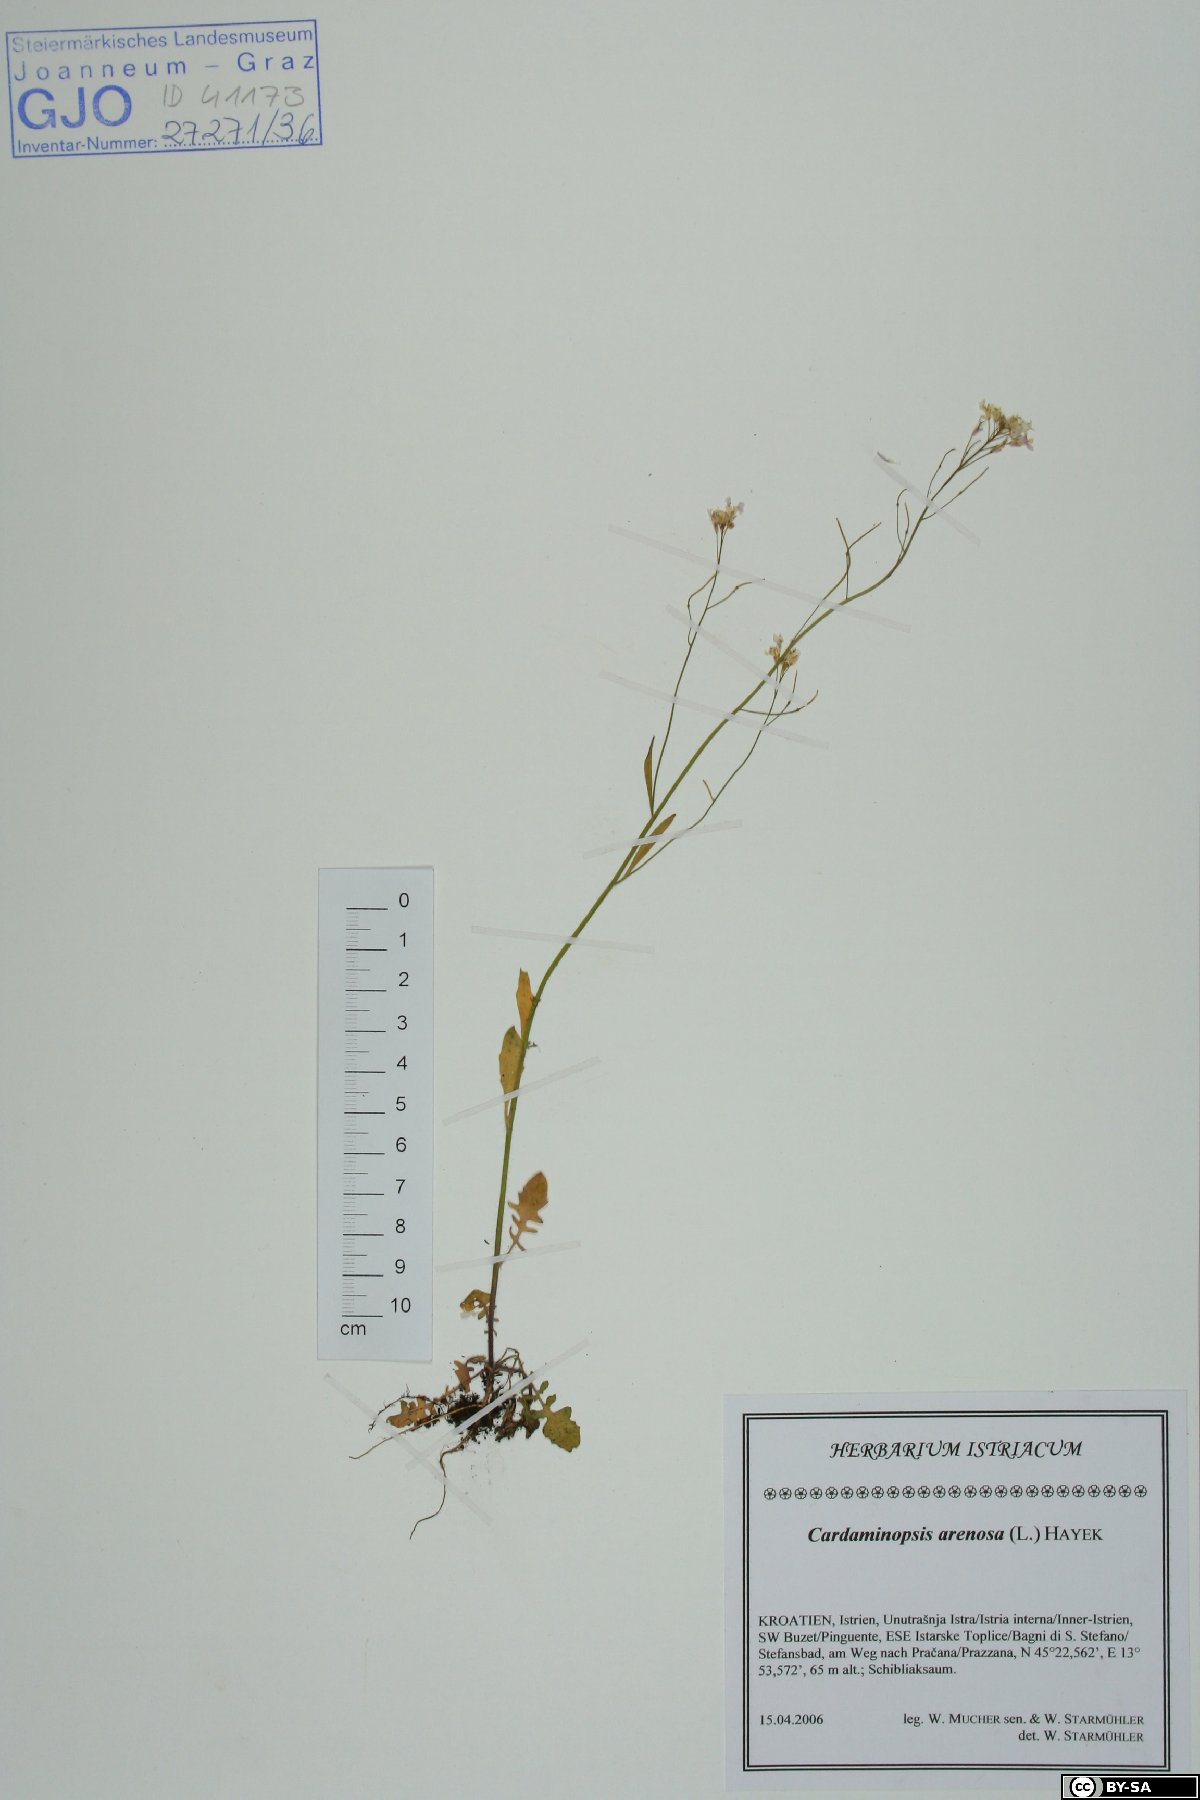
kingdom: Plantae
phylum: Tracheophyta
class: Magnoliopsida
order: Brassicales
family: Brassicaceae
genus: Arabidopsis
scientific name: Arabidopsis arenosa
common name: Sand rock-cress
